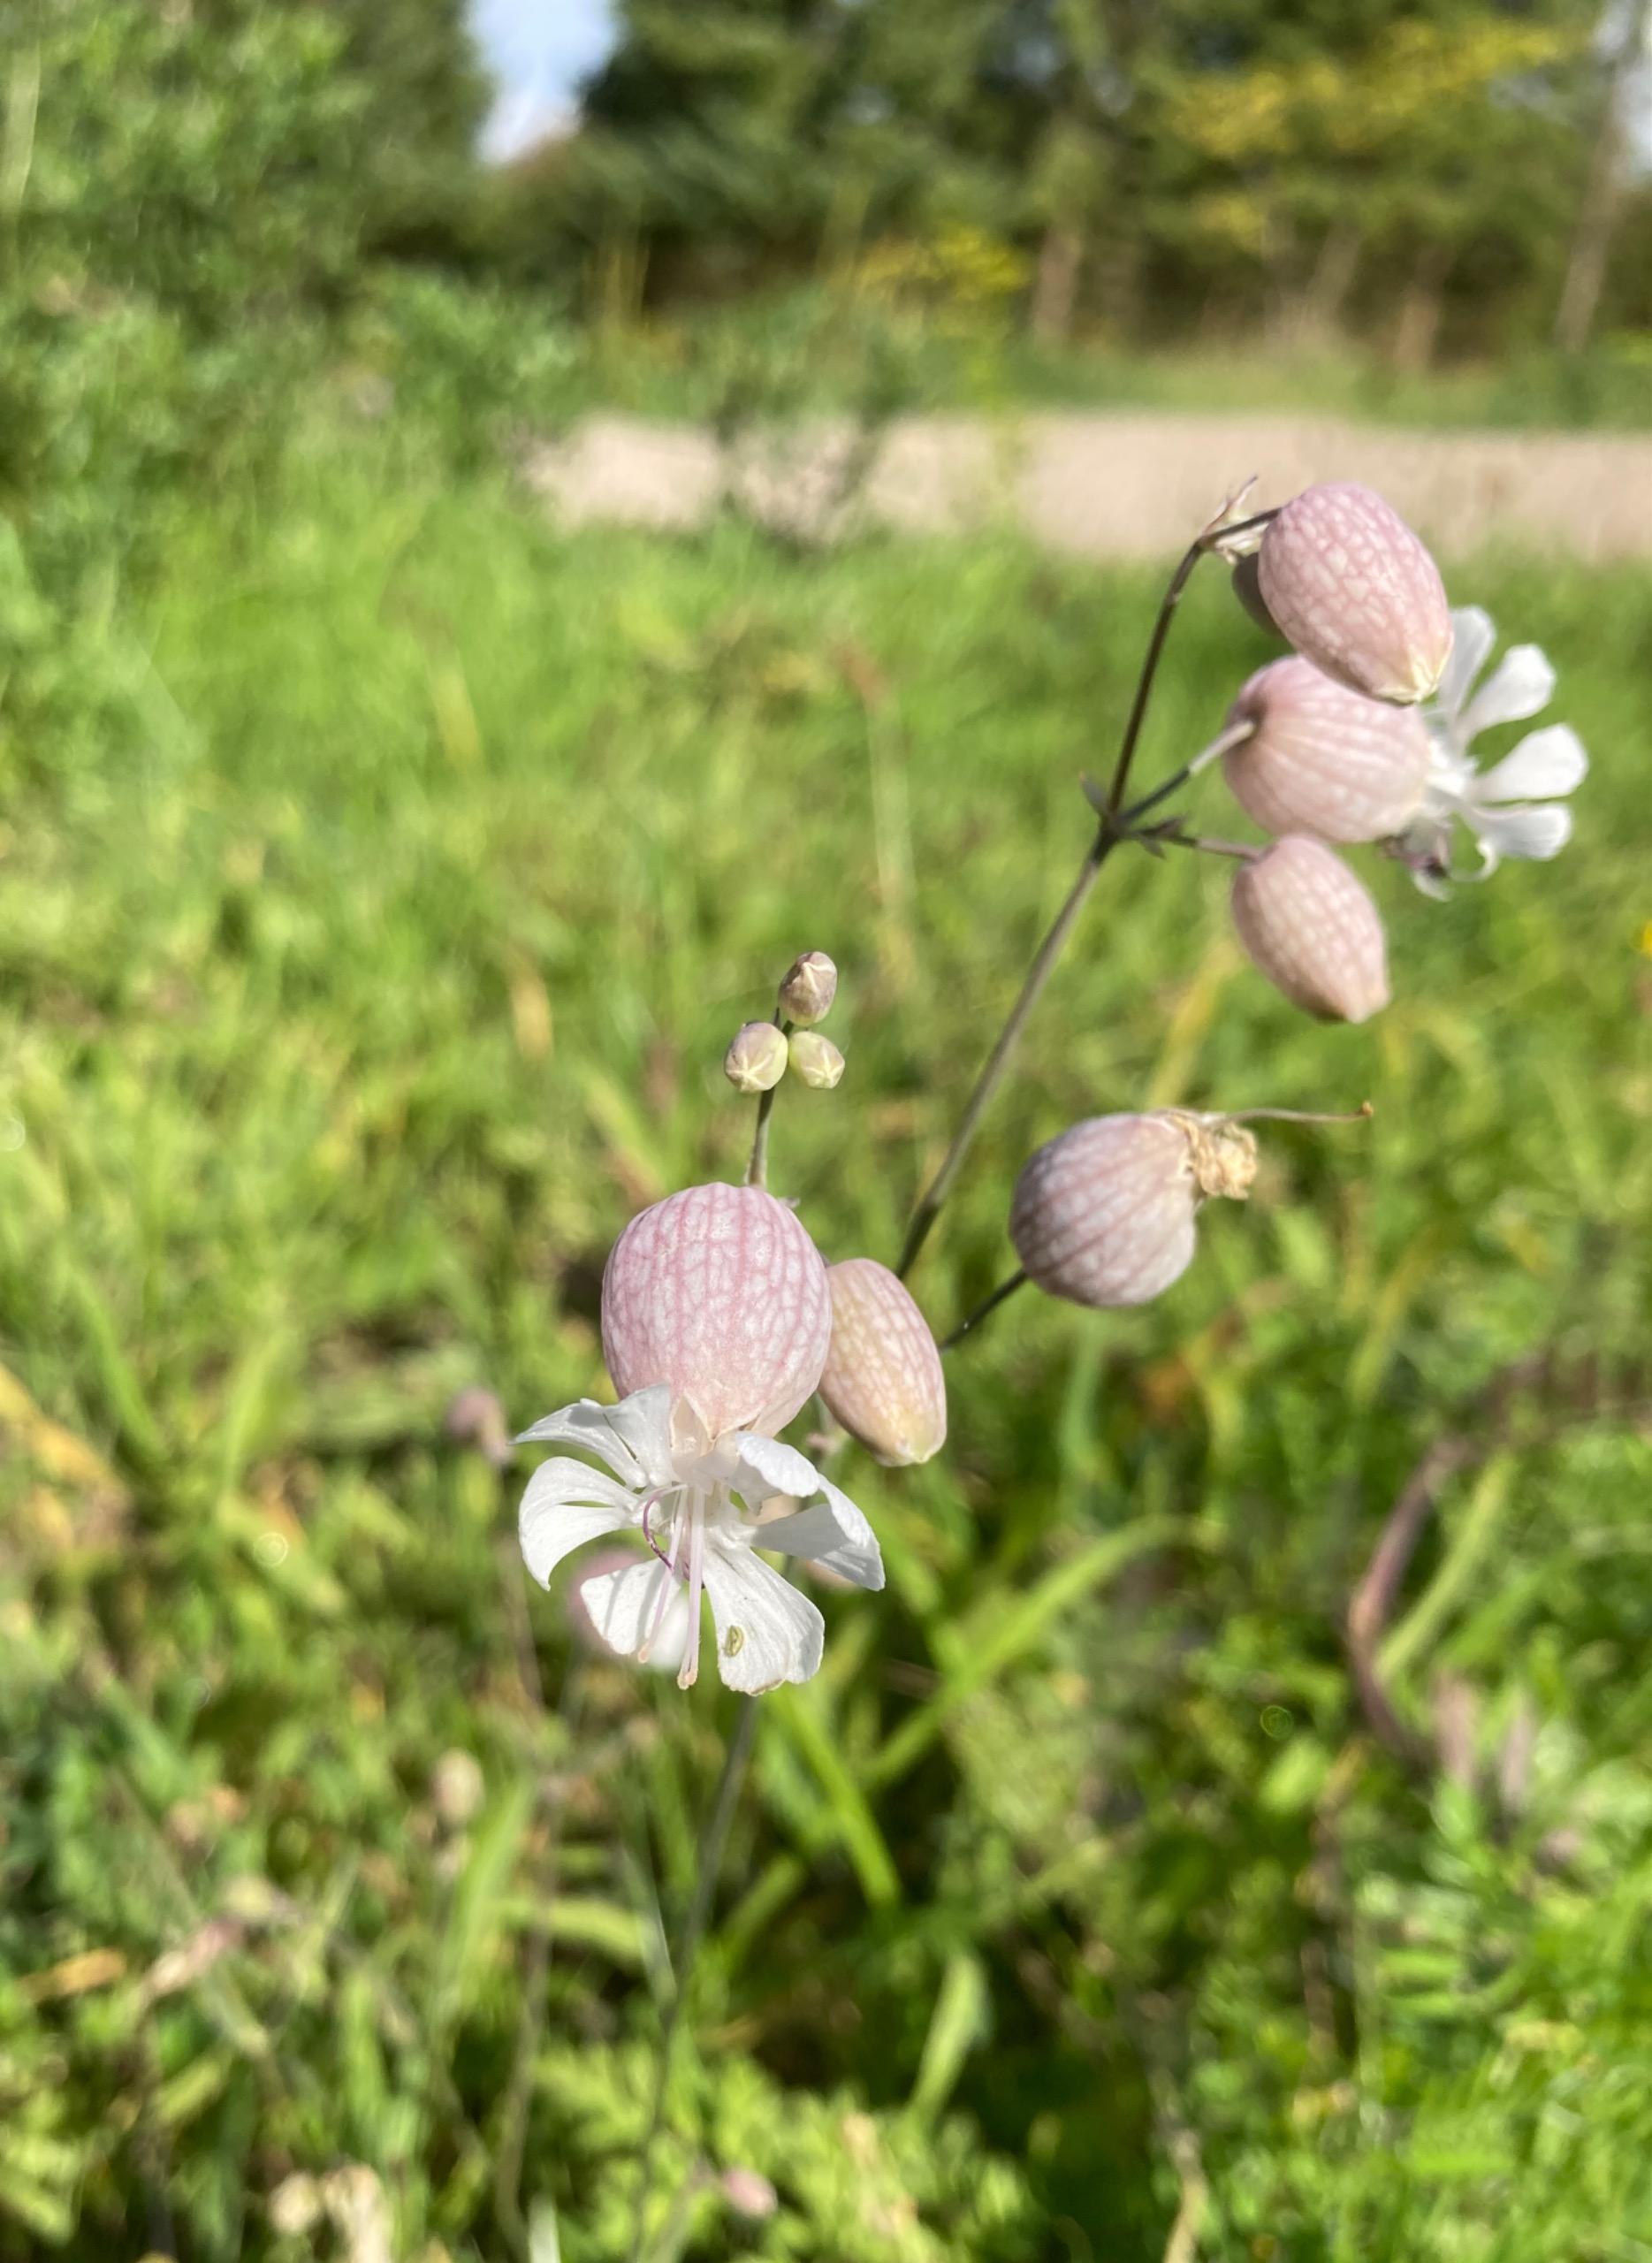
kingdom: Plantae
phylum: Tracheophyta
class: Magnoliopsida
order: Caryophyllales
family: Caryophyllaceae
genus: Silene
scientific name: Silene vulgaris
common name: Blæresmælde
